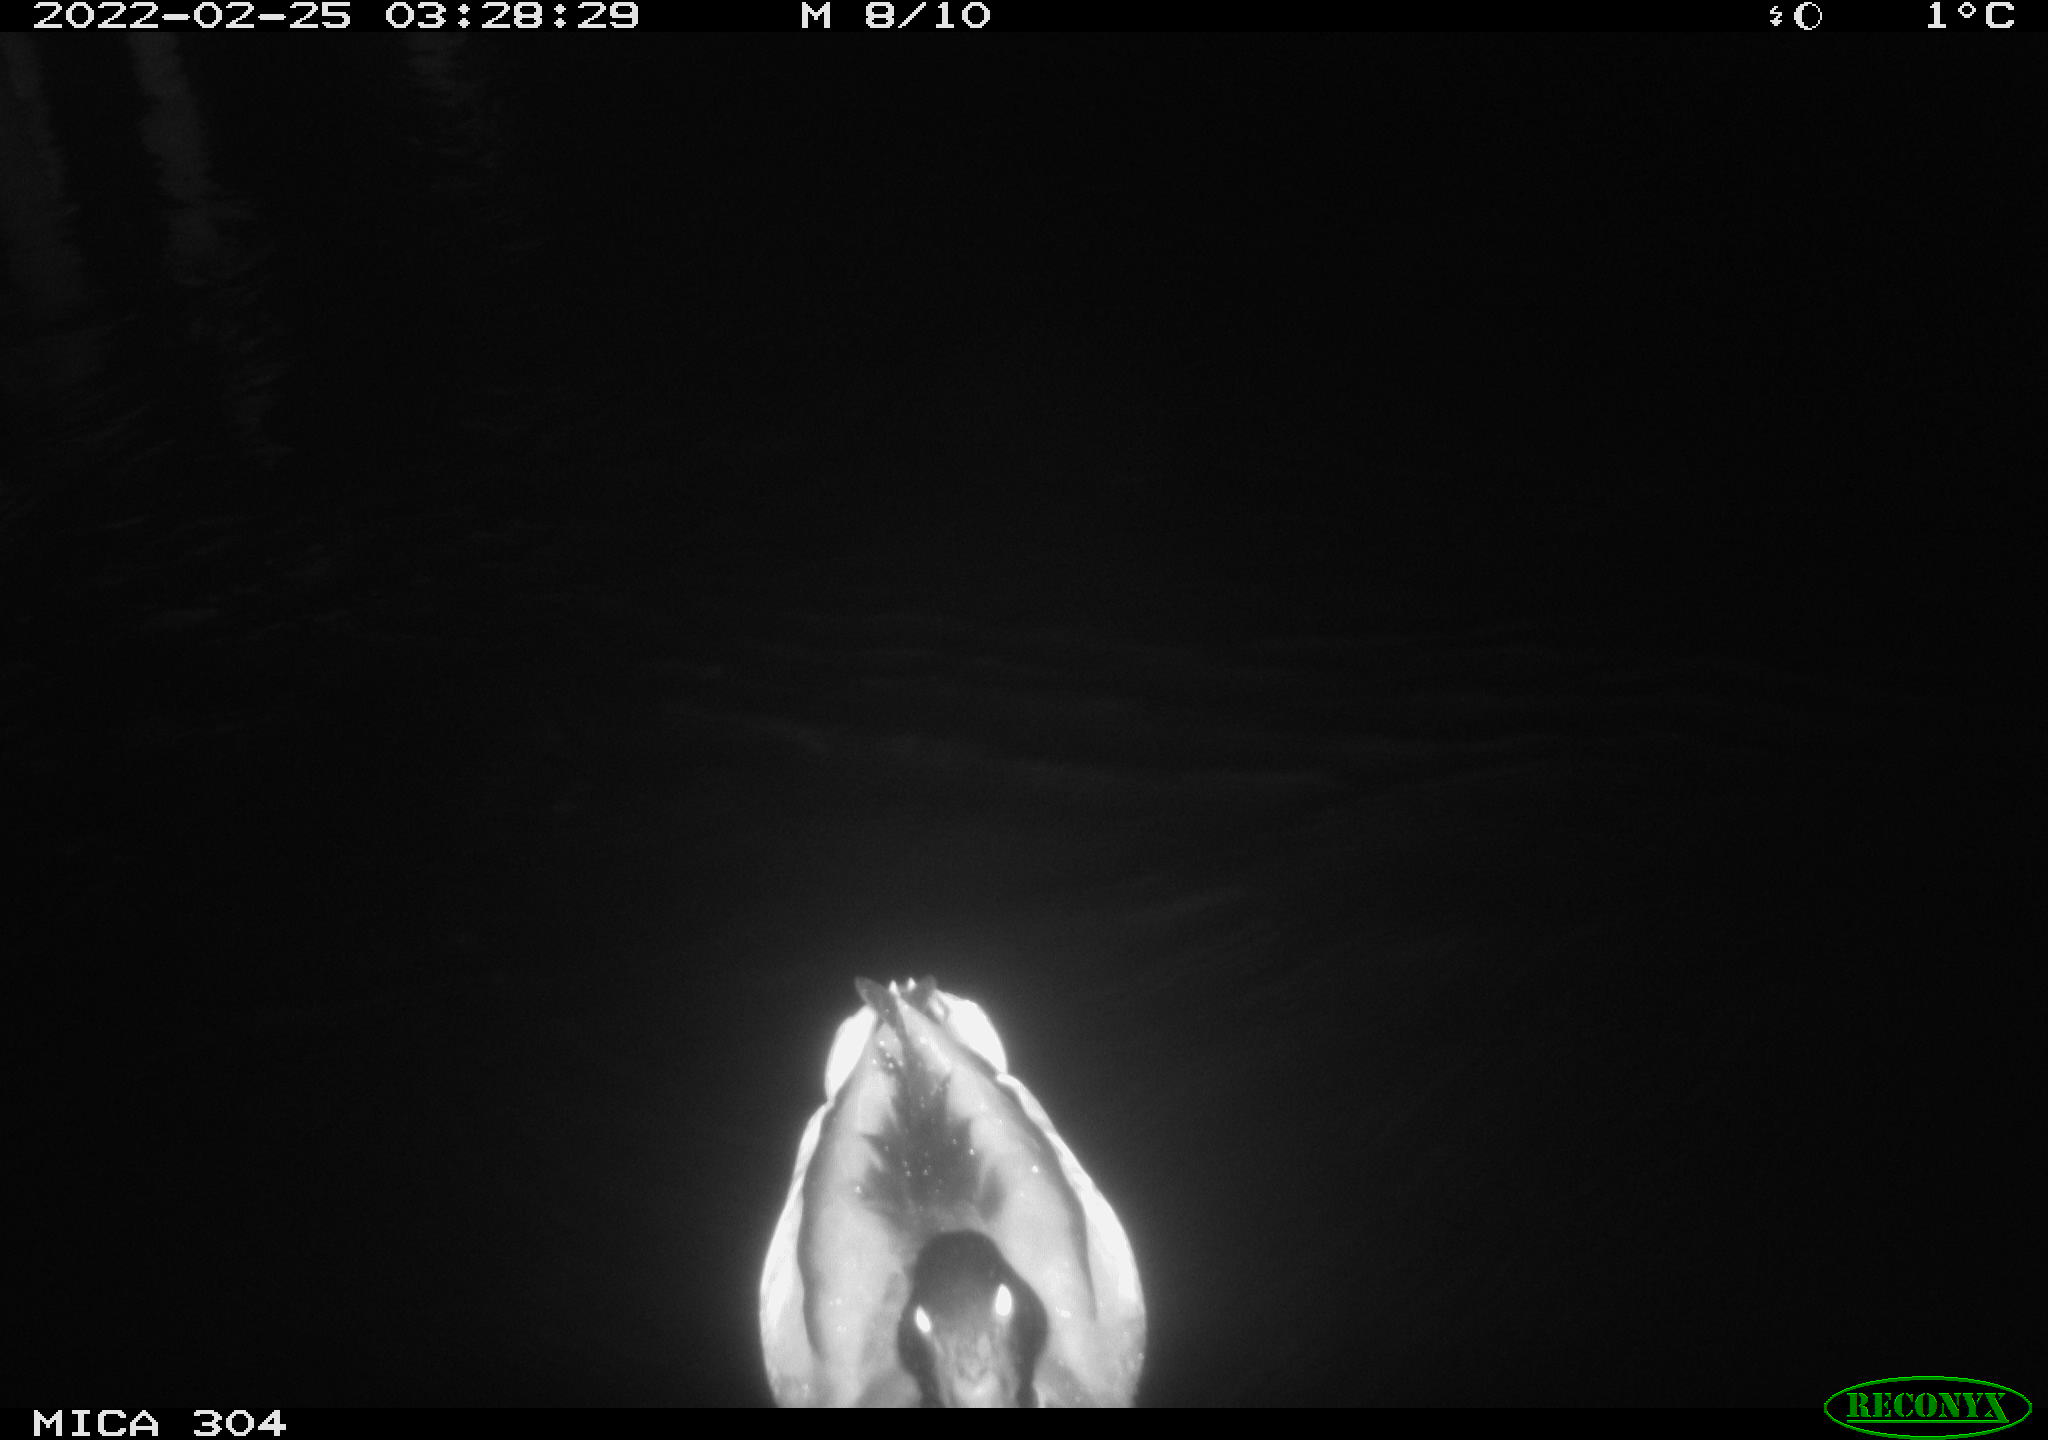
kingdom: Animalia
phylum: Chordata
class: Aves
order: Anseriformes
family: Anatidae
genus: Anas
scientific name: Anas platyrhynchos
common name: Mallard
